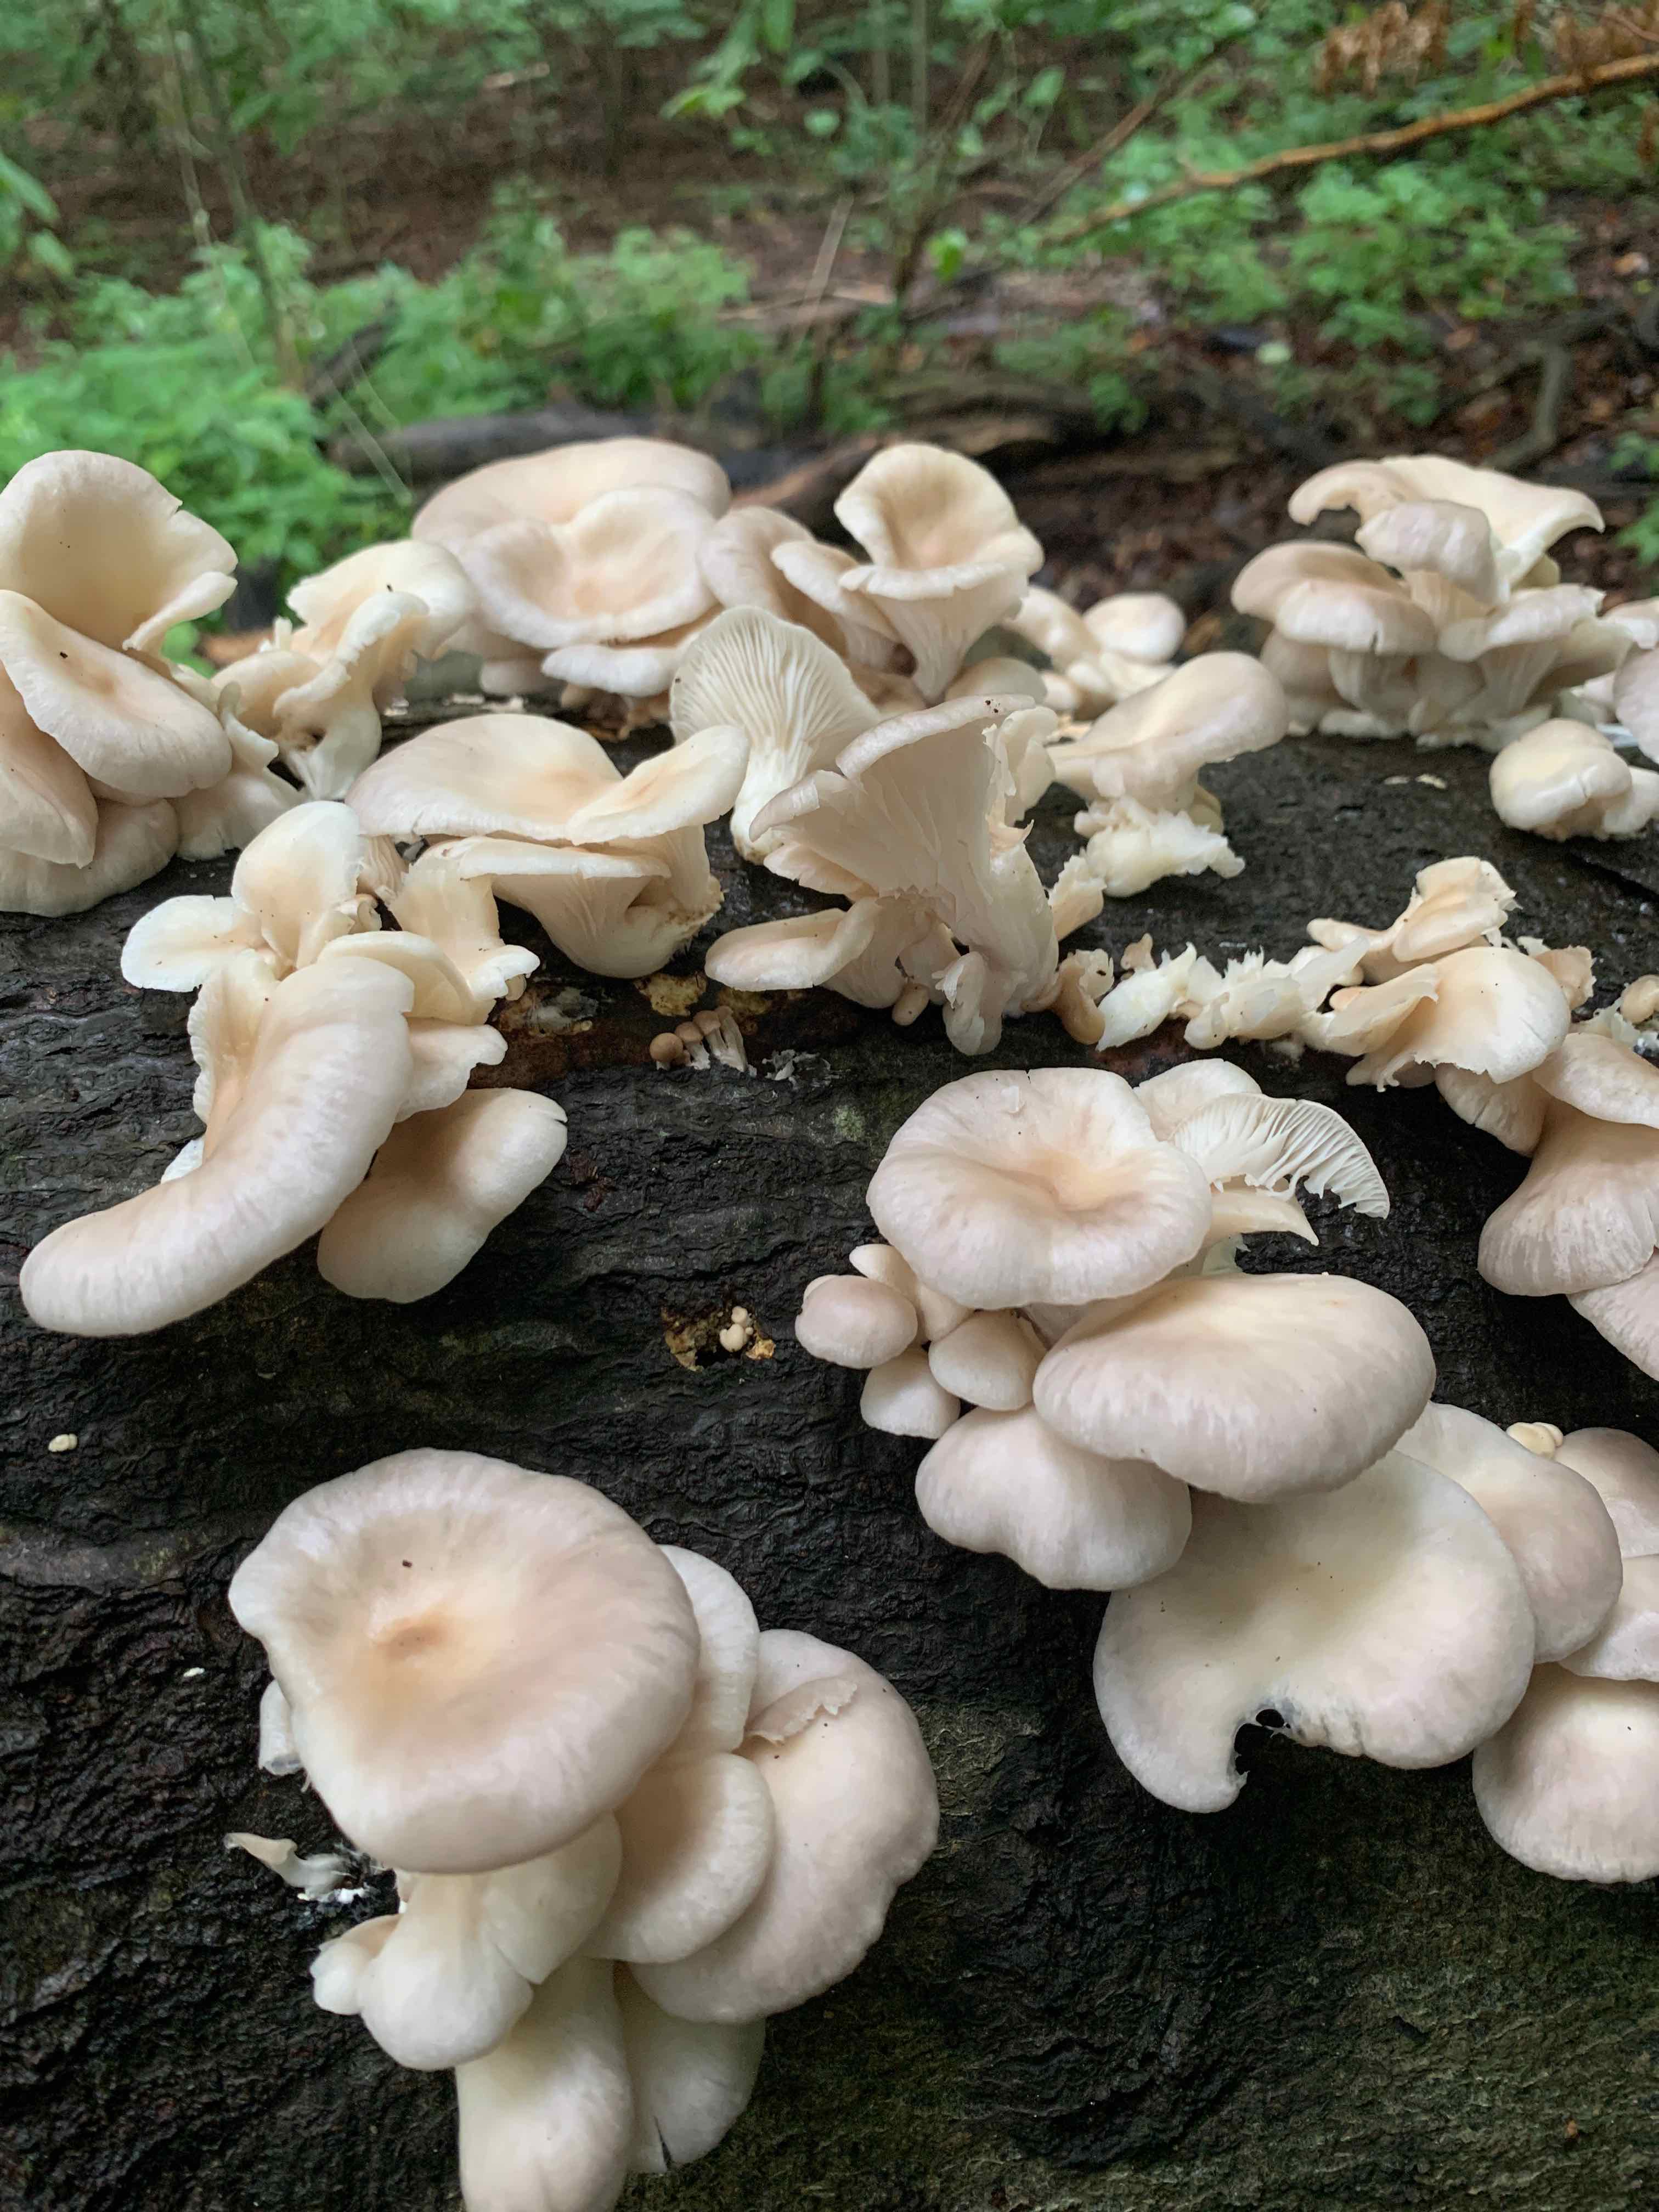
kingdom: Fungi
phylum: Basidiomycota
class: Agaricomycetes
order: Agaricales
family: Pleurotaceae
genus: Pleurotus
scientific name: Pleurotus pulmonarius
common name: sommer-østershat
